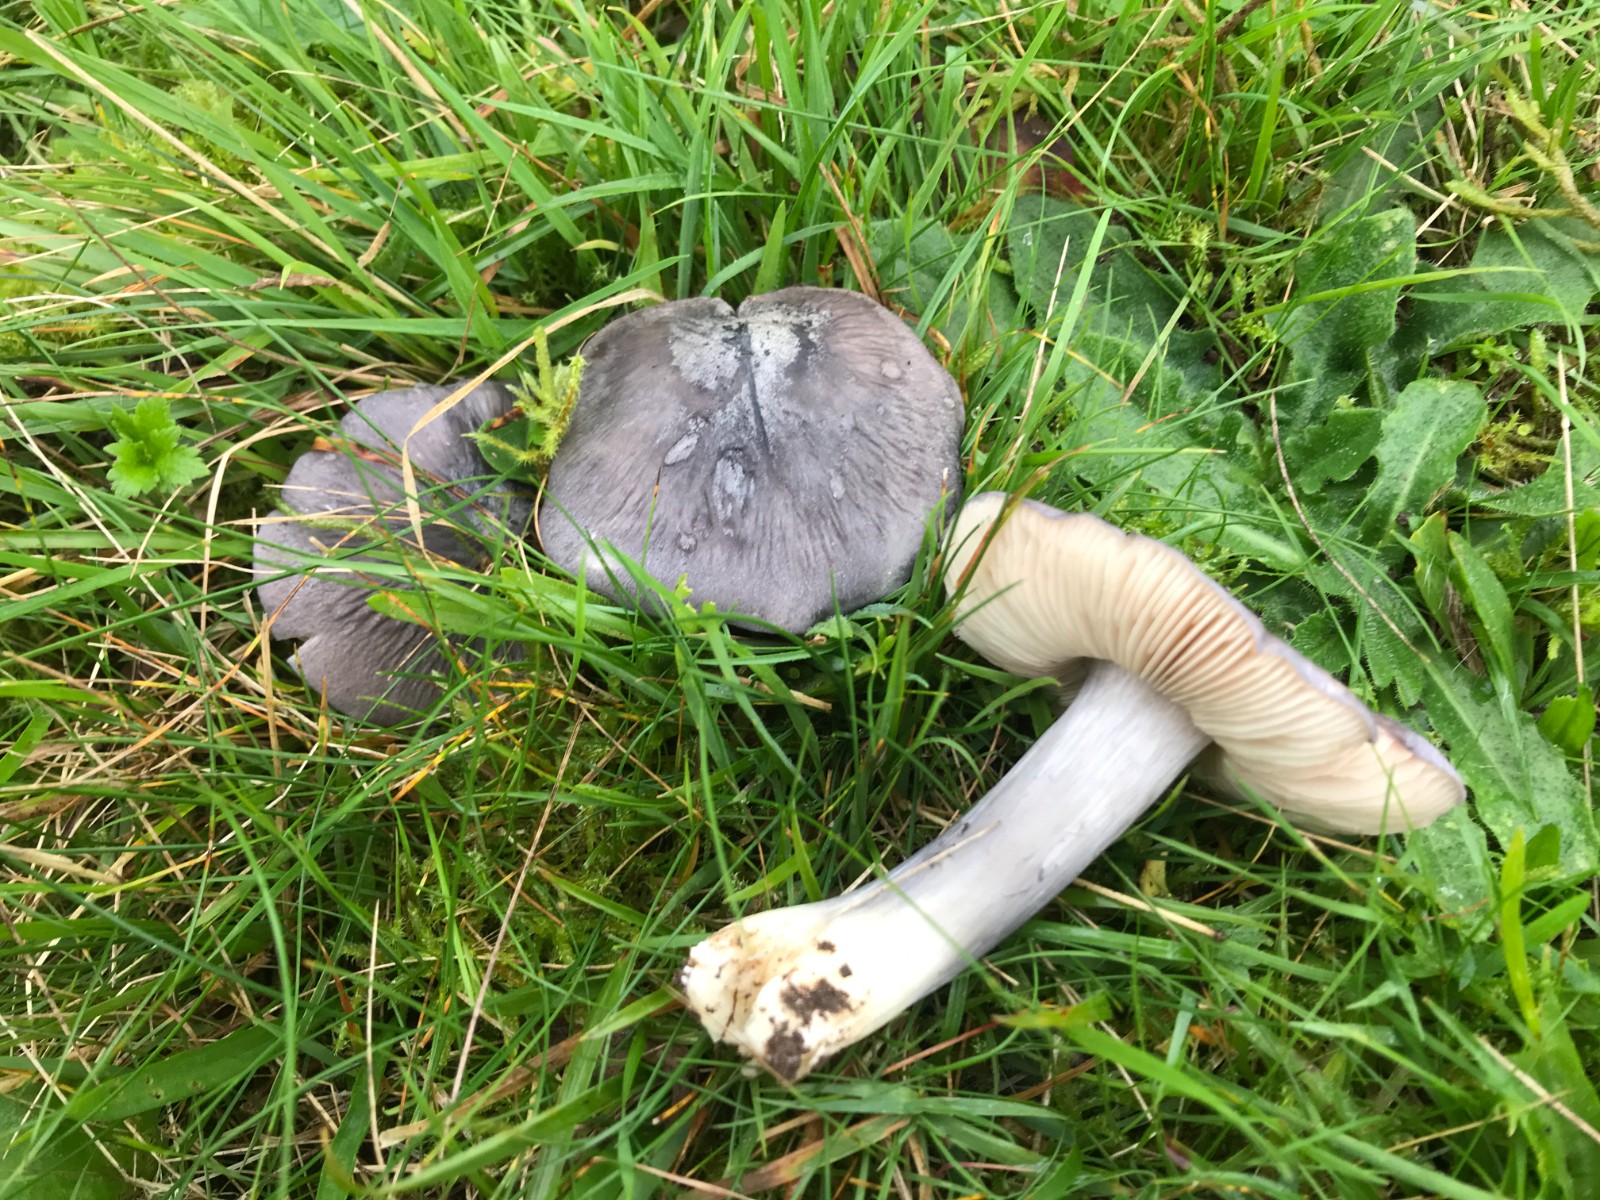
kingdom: Fungi
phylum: Basidiomycota
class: Agaricomycetes
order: Agaricales
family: Entolomataceae
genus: Entoloma
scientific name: Entoloma madidum
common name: indigo-rødblad
